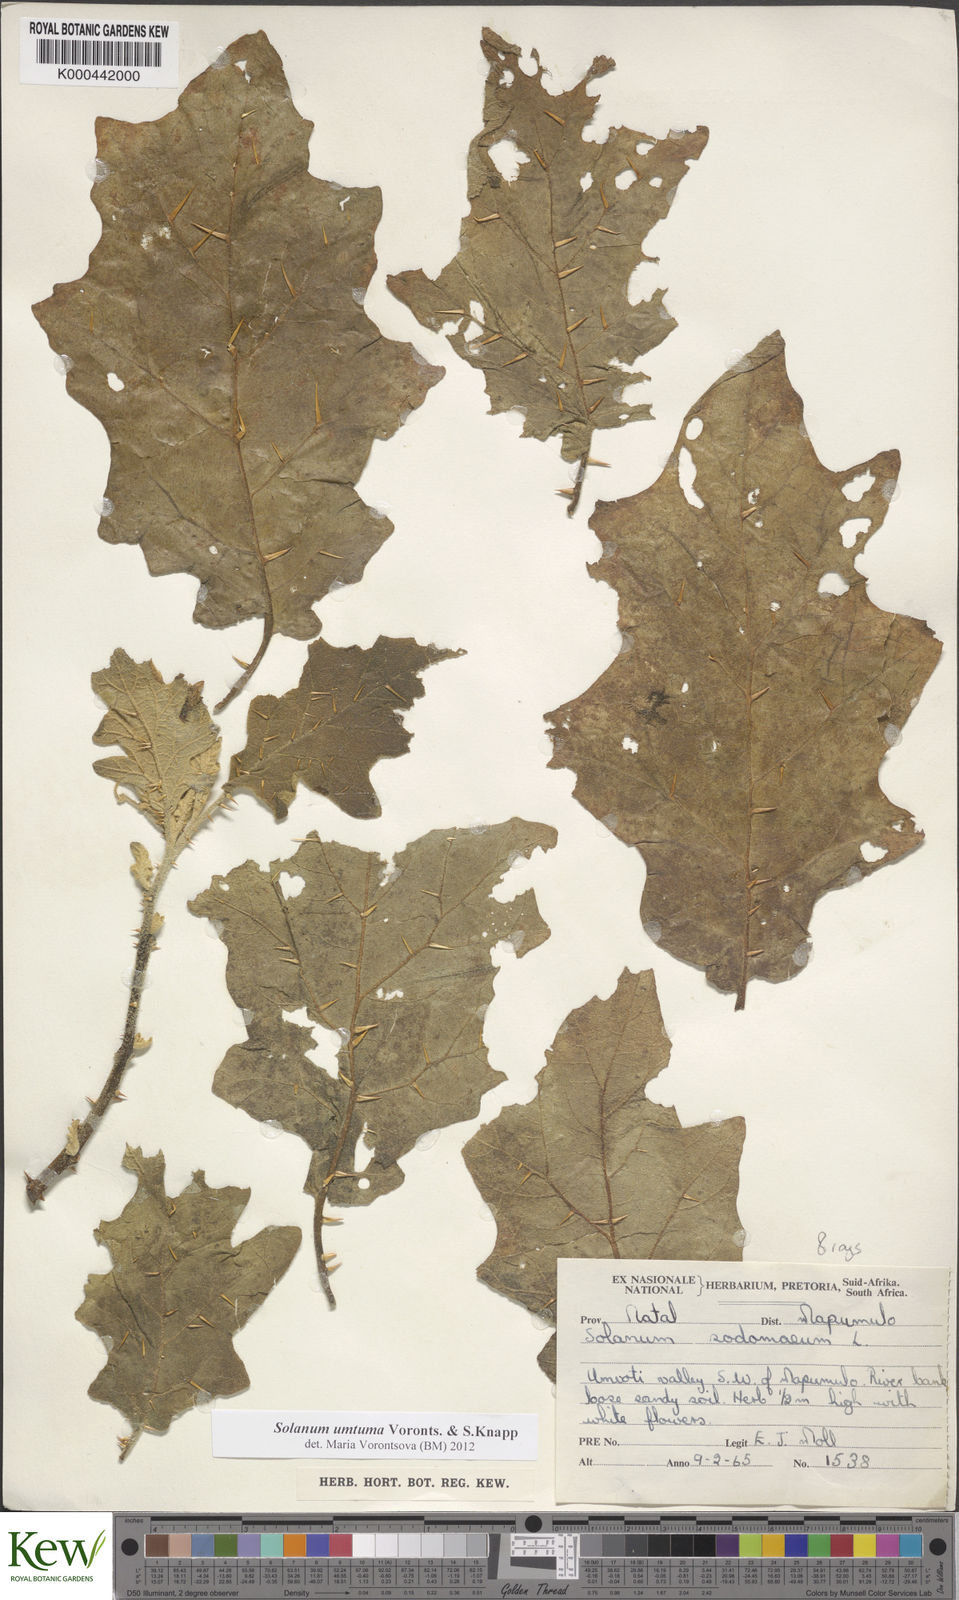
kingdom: Plantae
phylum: Tracheophyta
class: Magnoliopsida
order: Solanales
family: Solanaceae
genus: Solanum
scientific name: Solanum umtuma
